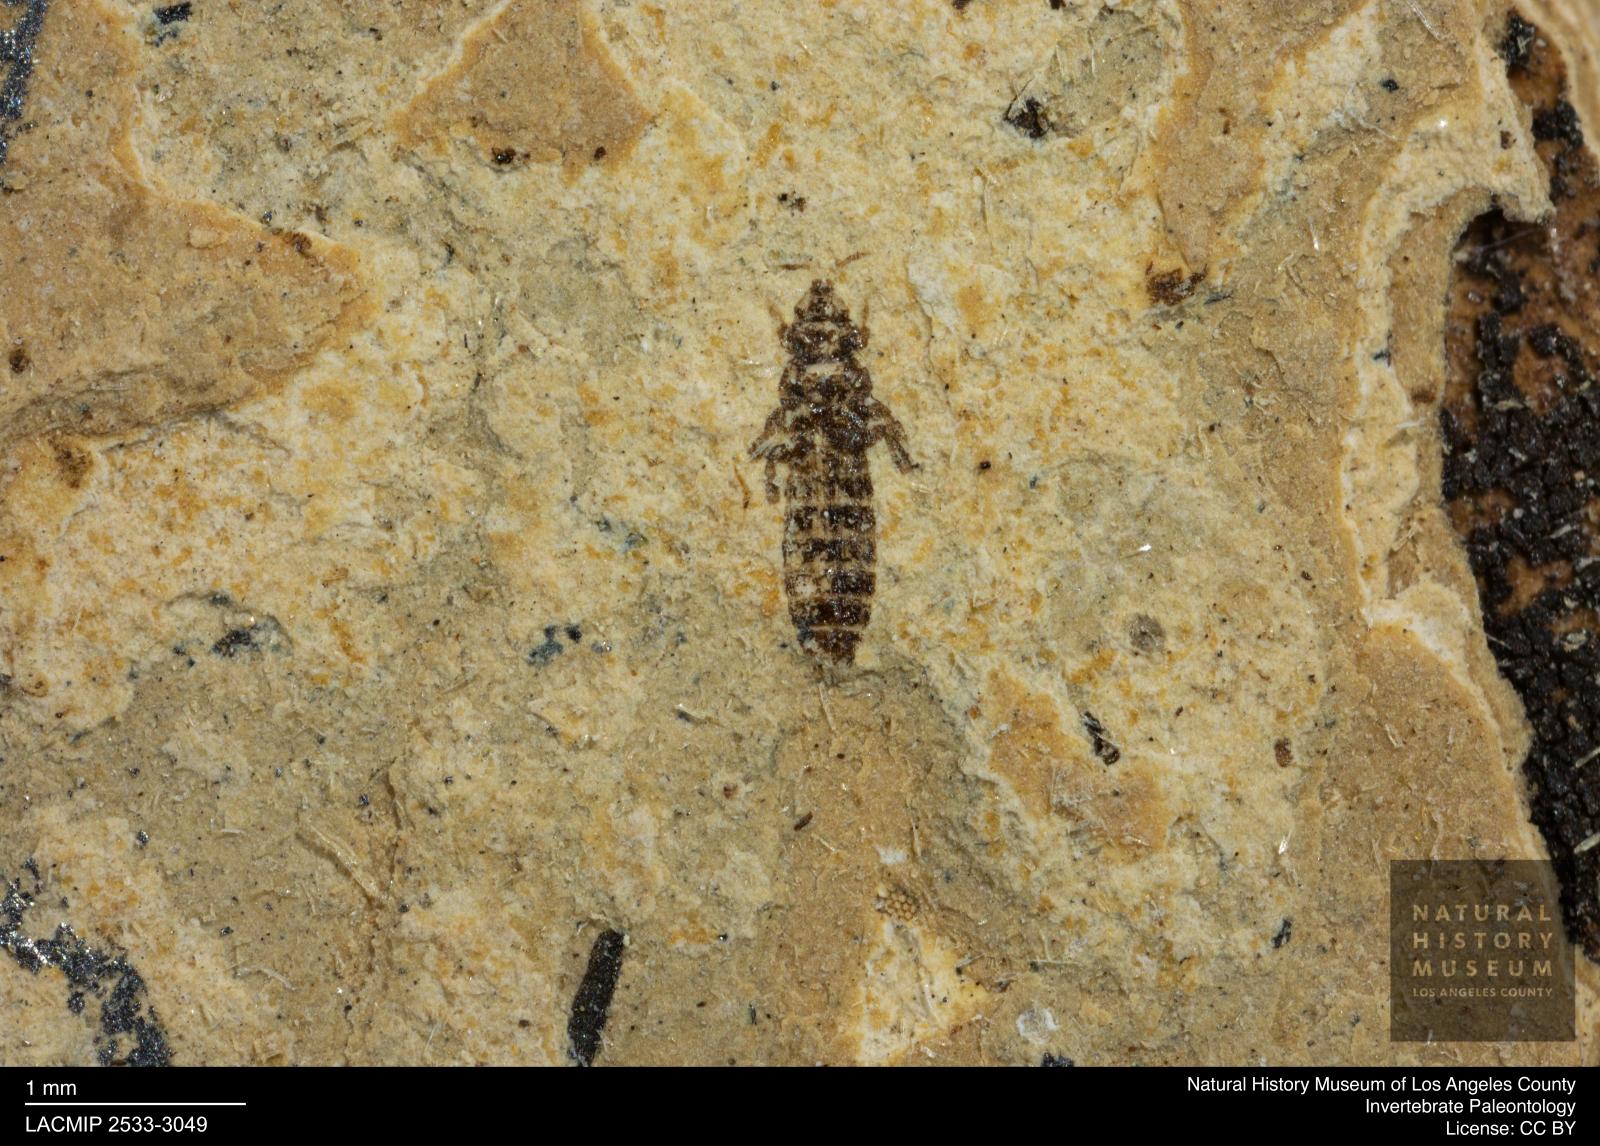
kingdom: Animalia
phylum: Arthropoda
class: Insecta
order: Thysanoptera
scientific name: Thysanoptera
